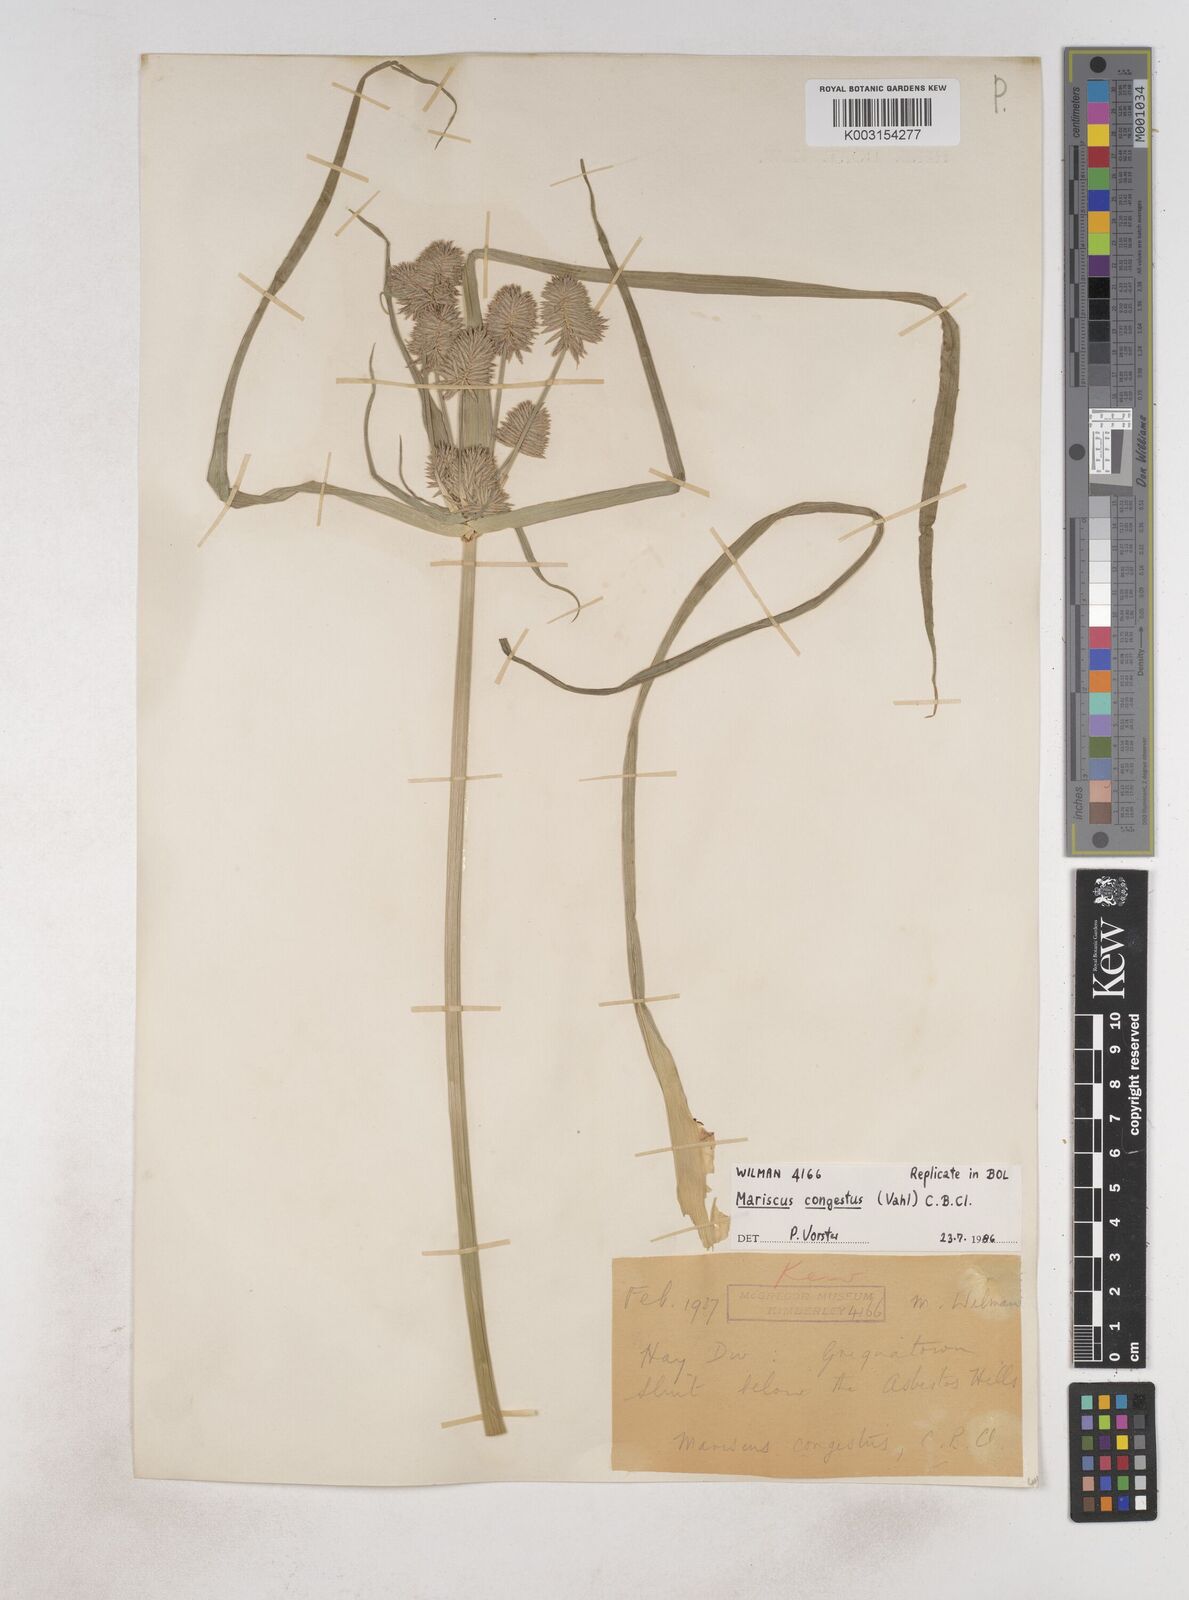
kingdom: Plantae
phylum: Tracheophyta
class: Liliopsida
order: Poales
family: Cyperaceae
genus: Cyperus
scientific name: Cyperus congestus
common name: Dense flat sedge
